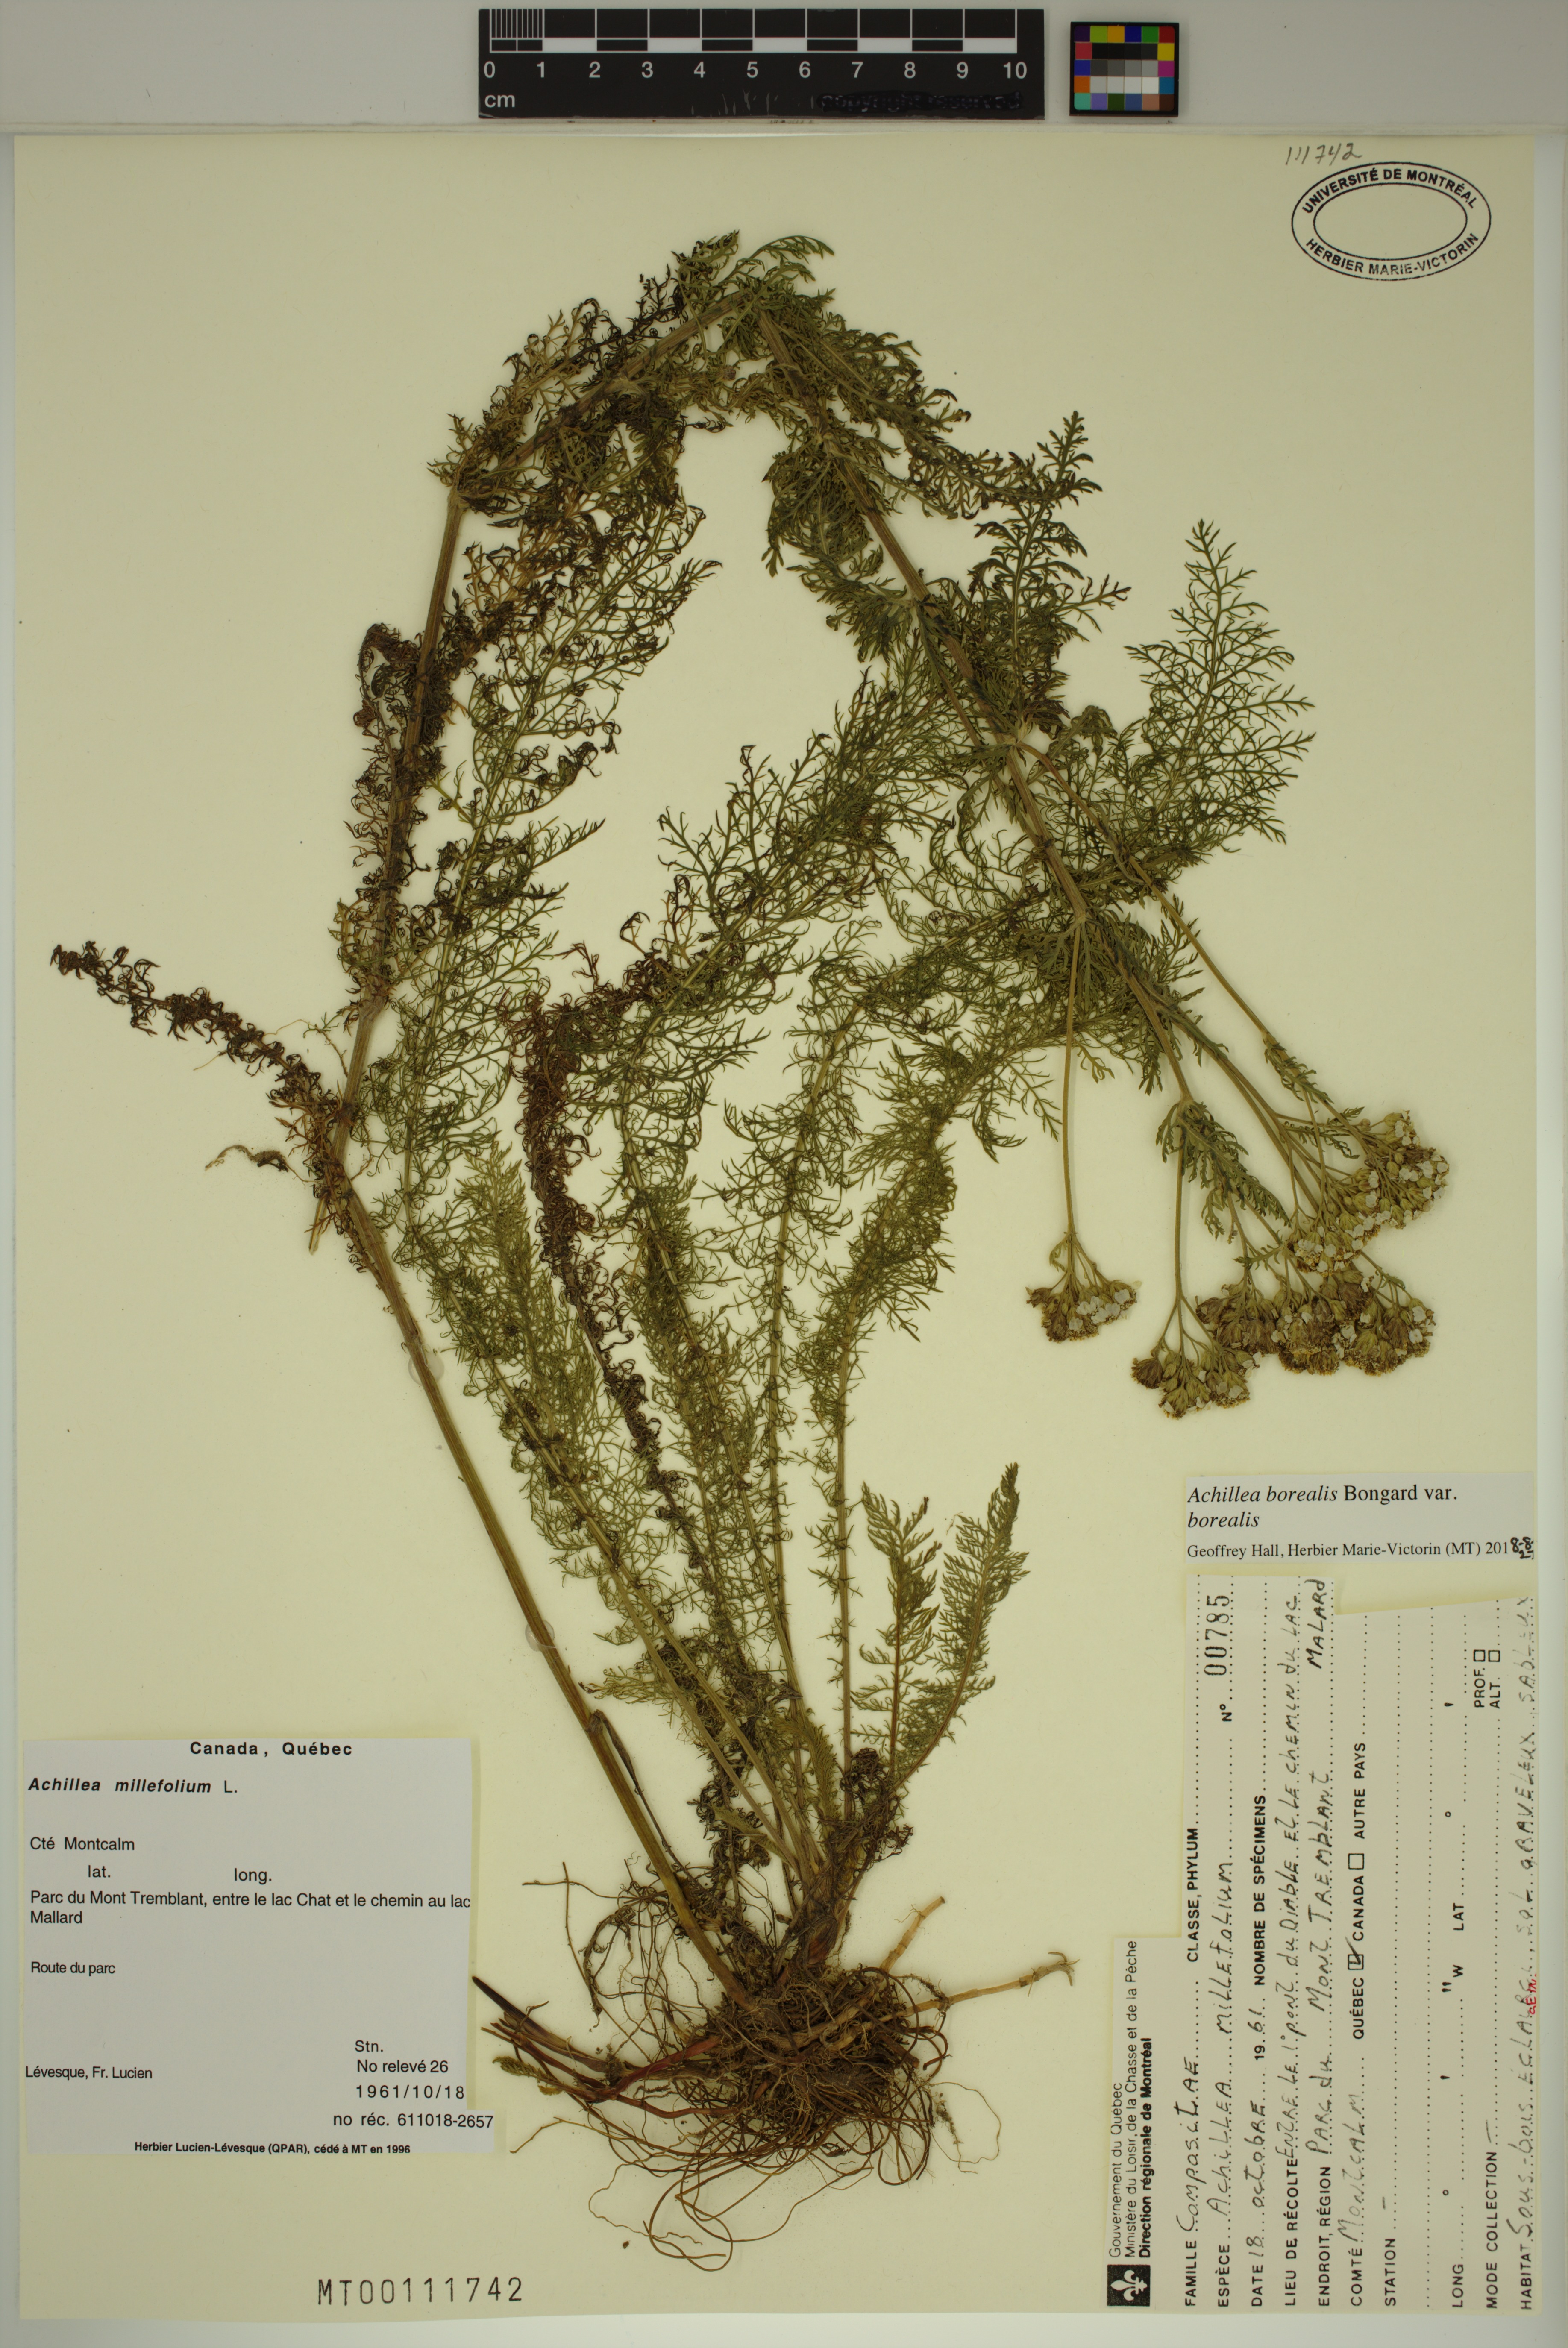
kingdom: Plantae
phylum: Tracheophyta
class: Magnoliopsida
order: Asterales
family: Asteraceae
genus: Achillea
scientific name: Achillea millefolium
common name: Yarrow
